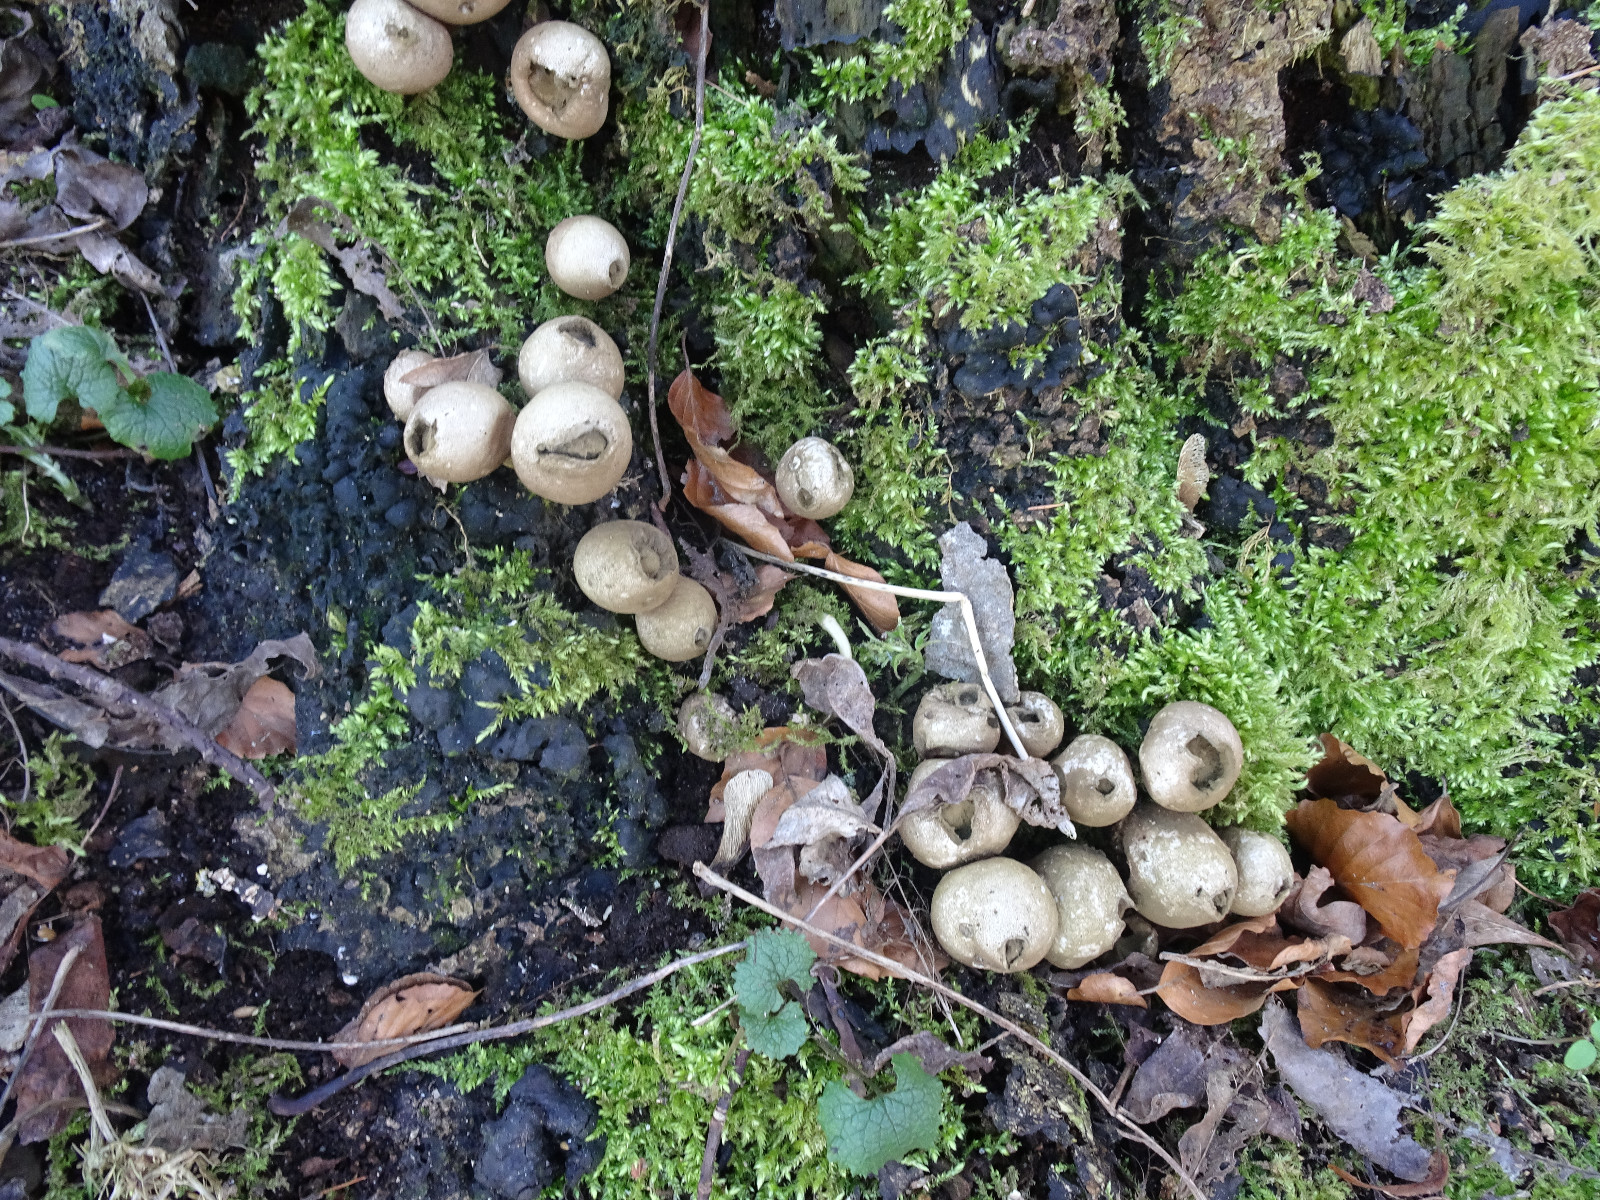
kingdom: Fungi
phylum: Basidiomycota
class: Agaricomycetes
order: Agaricales
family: Lycoperdaceae
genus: Apioperdon
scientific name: Apioperdon pyriforme
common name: pære-støvbold
